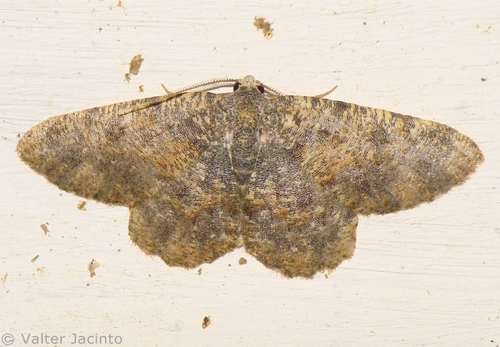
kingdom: Animalia
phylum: Arthropoda
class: Insecta
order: Lepidoptera
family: Geometridae
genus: Charissa
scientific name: Charissa mucidaria
